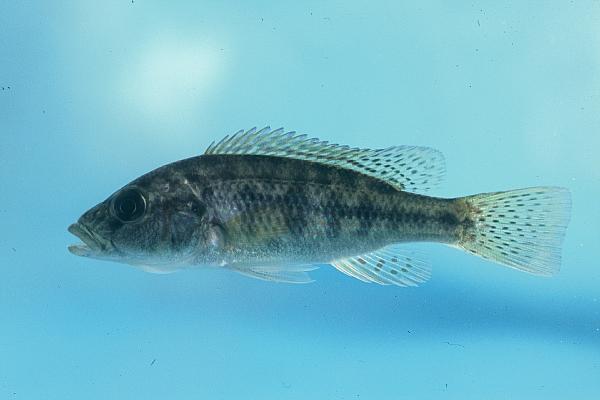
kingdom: Animalia
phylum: Chordata
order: Perciformes
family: Cichlidae
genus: Chetia
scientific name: Chetia flaviventris
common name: Canary kurper
